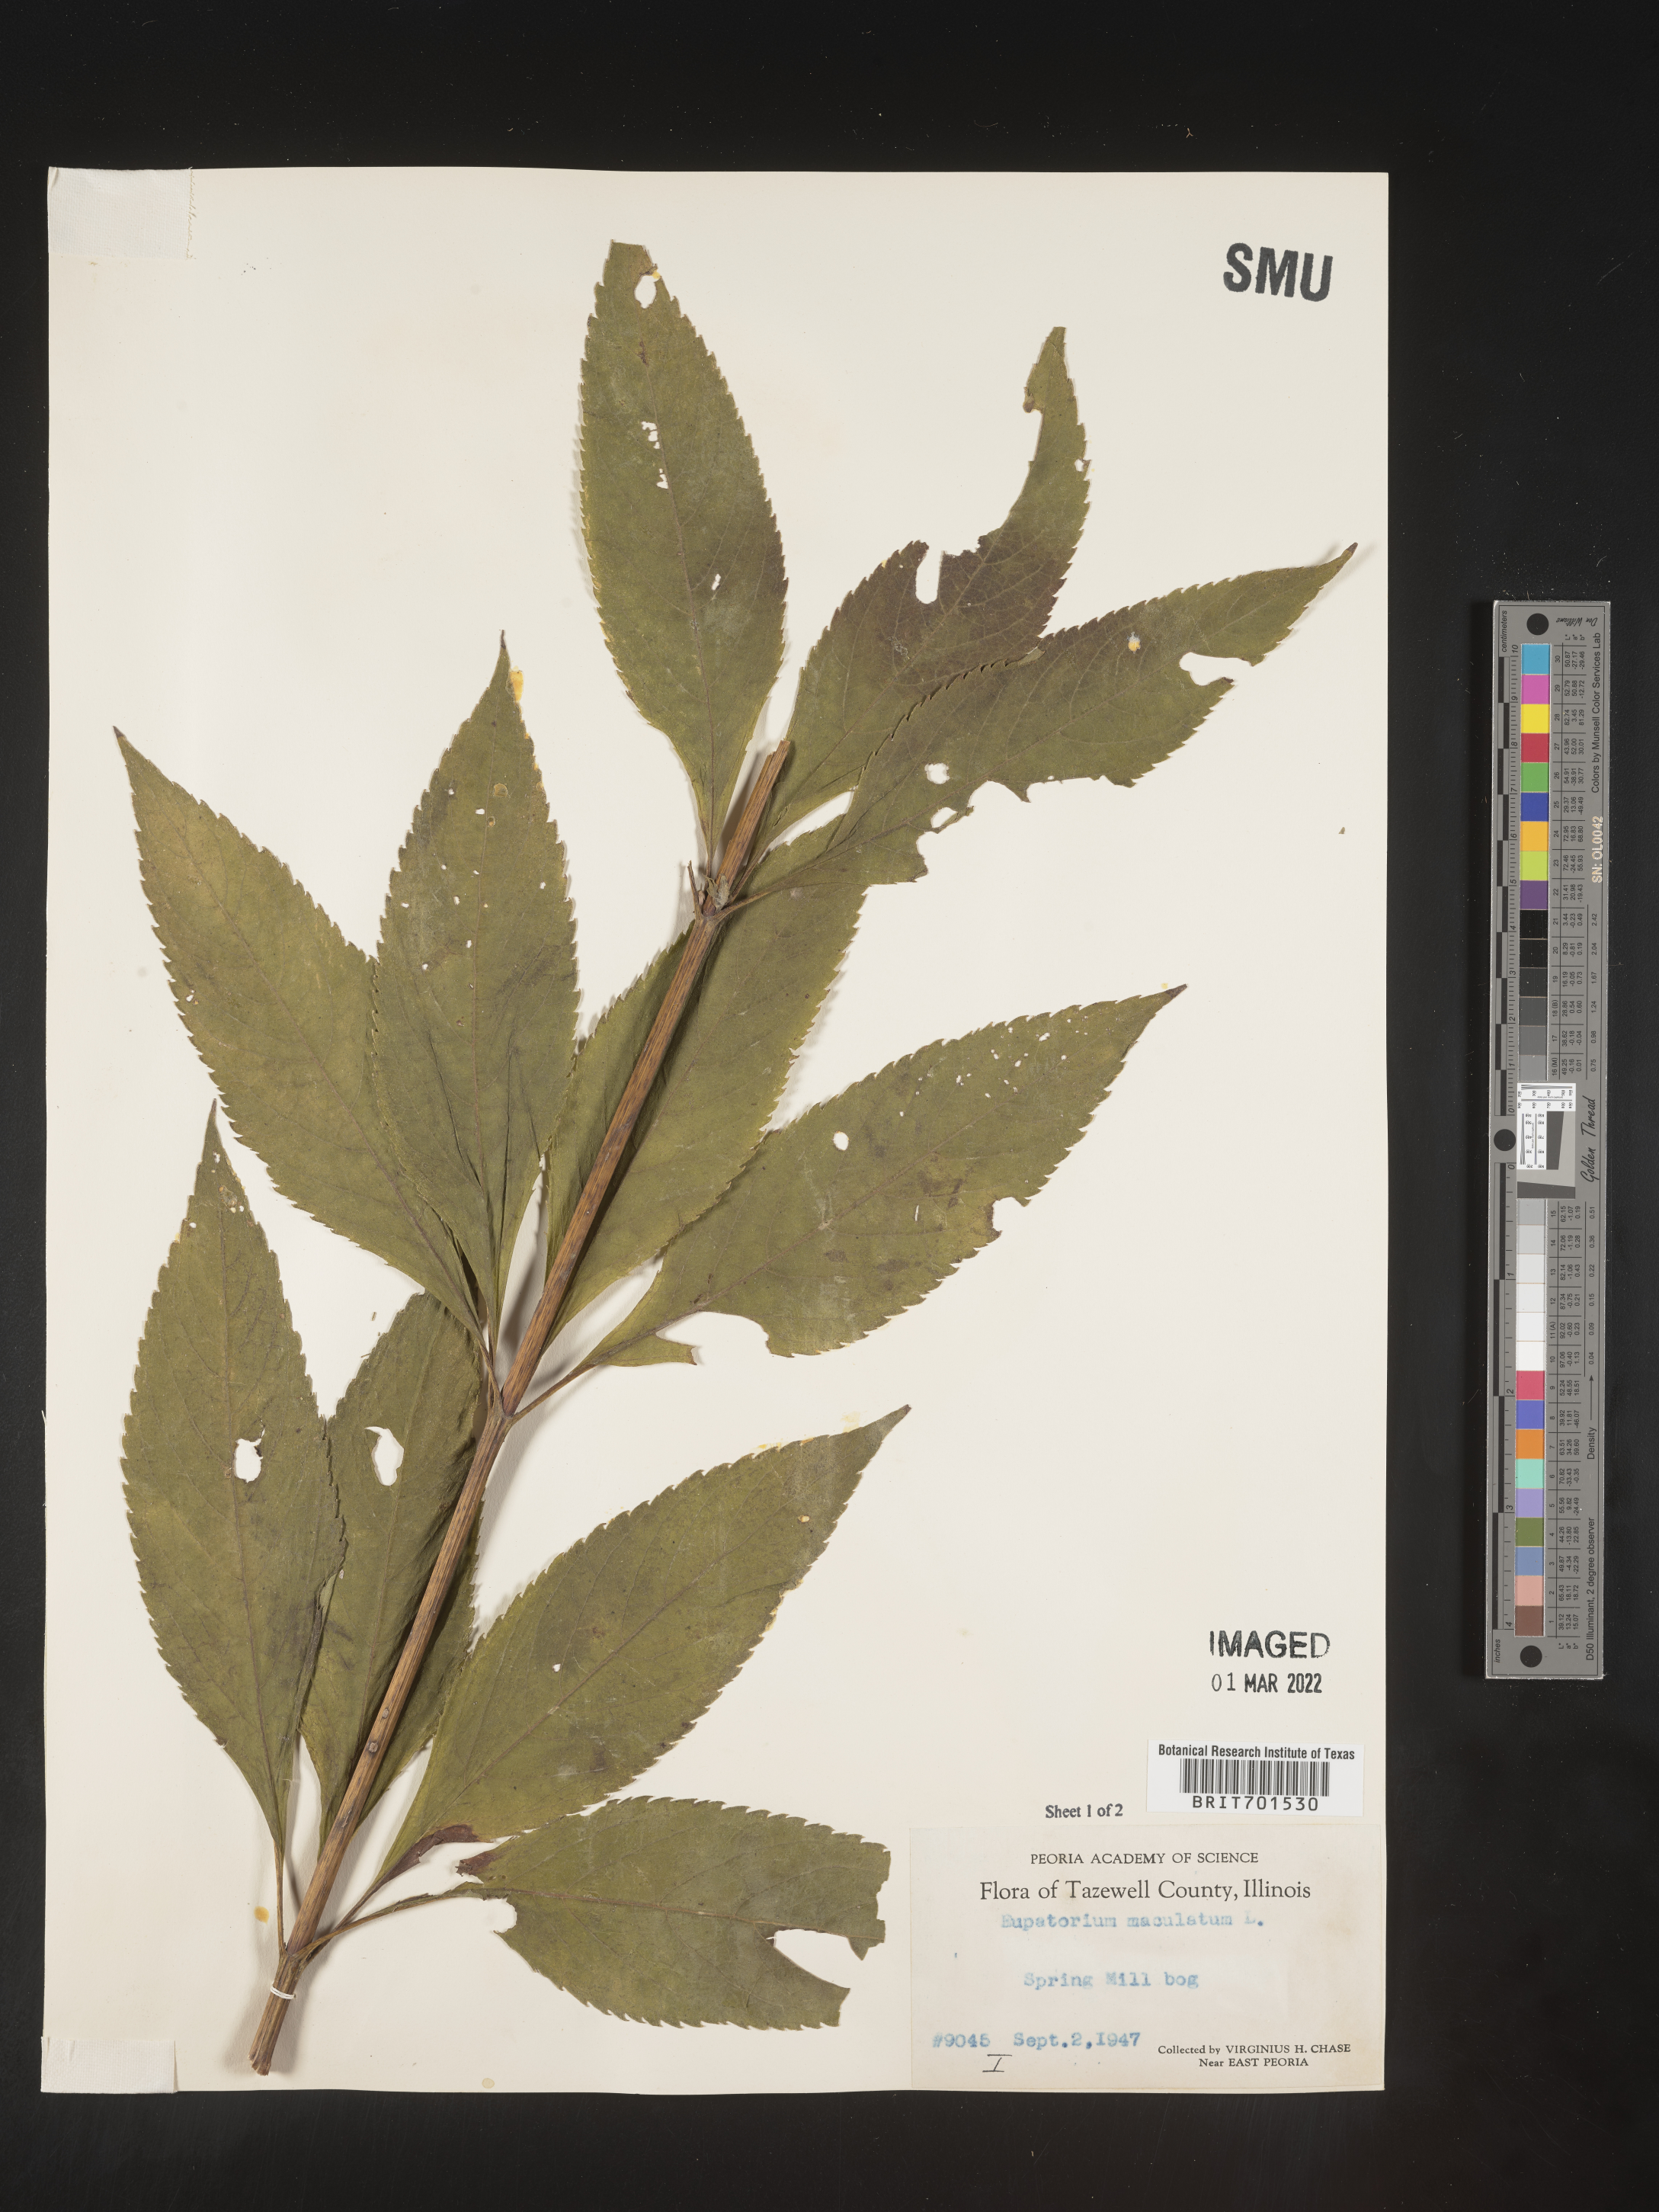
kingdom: Plantae
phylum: Tracheophyta
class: Magnoliopsida
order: Asterales
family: Asteraceae
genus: Eutrochium
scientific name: Eutrochium maculatum
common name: Spotted joe pye weed
